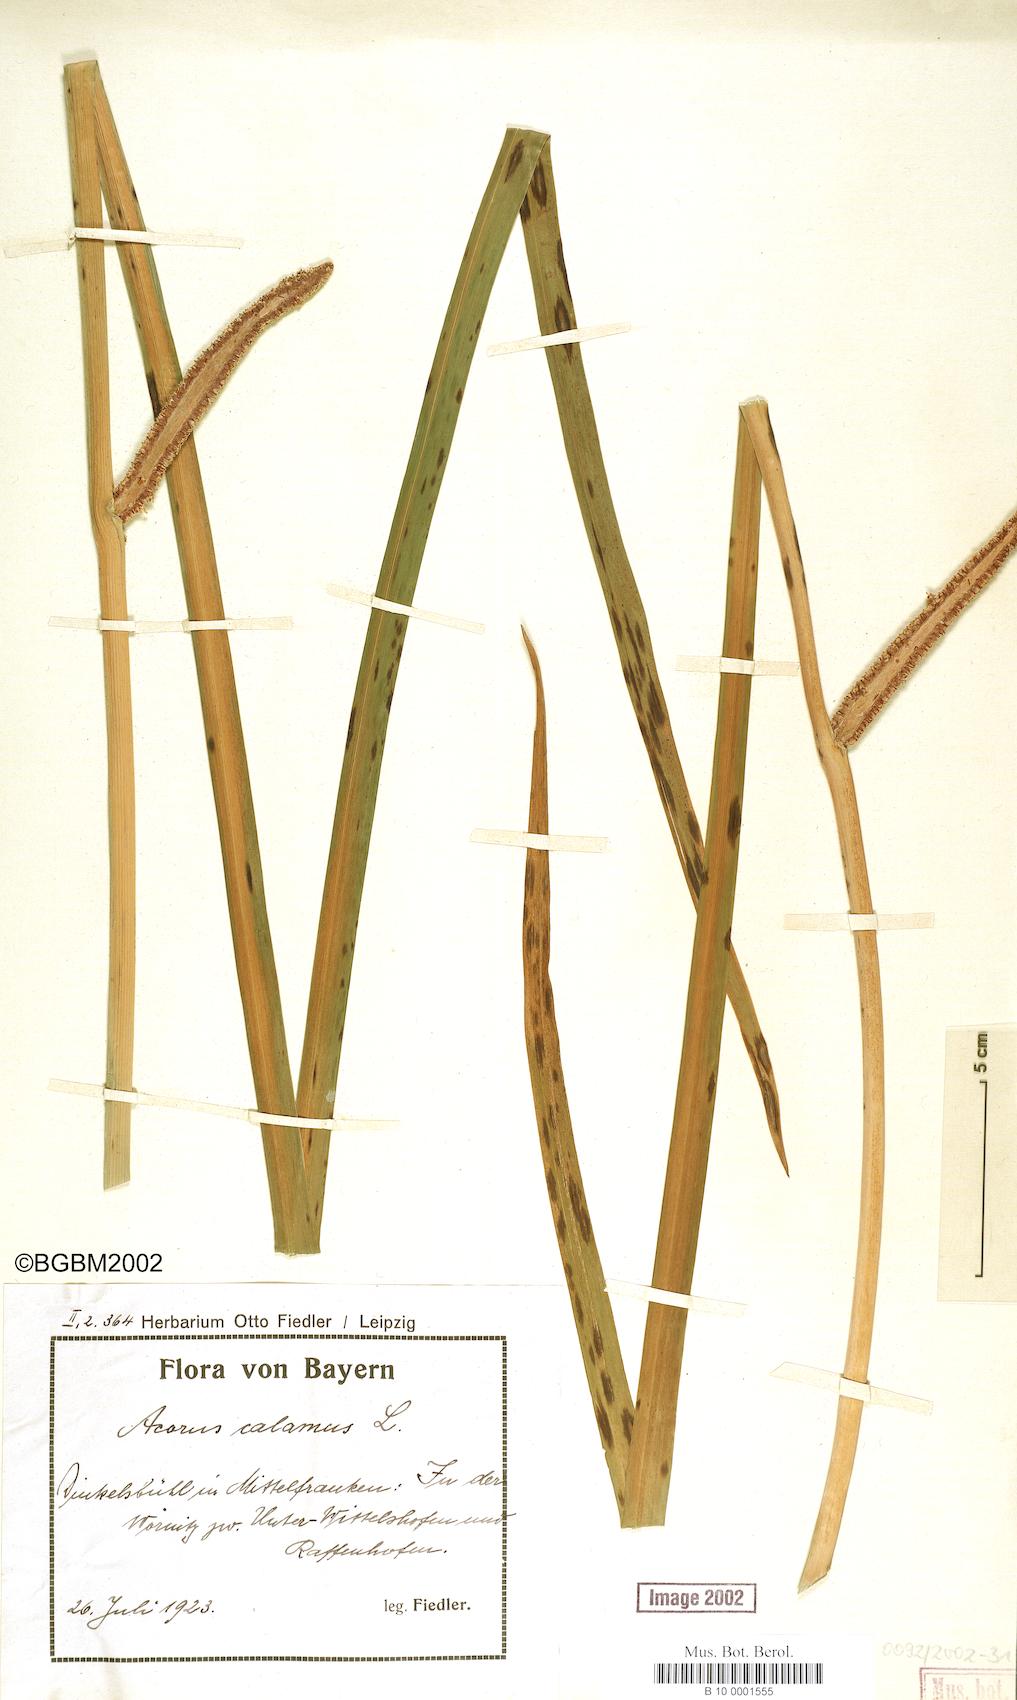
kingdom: Plantae
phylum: Tracheophyta
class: Liliopsida
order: Acorales
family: Acoraceae
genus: Acorus
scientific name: Acorus calamus
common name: Sweet-flag
